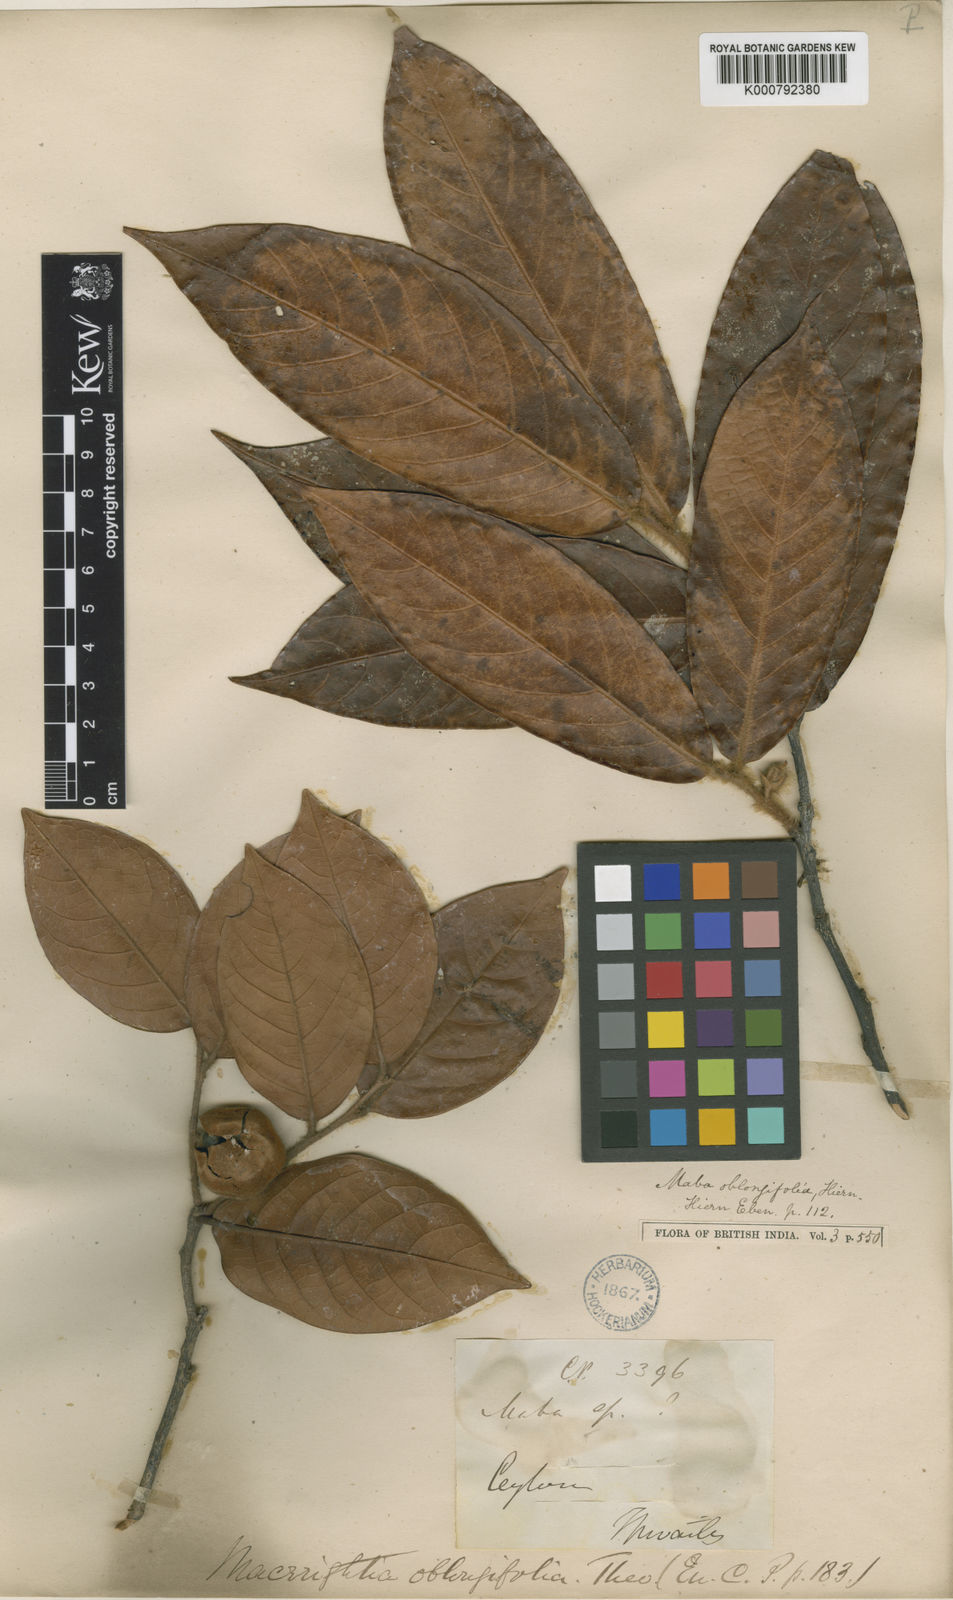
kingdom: Plantae
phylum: Tracheophyta
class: Magnoliopsida
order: Ericales
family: Ebenaceae
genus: Diospyros
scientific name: Diospyros
